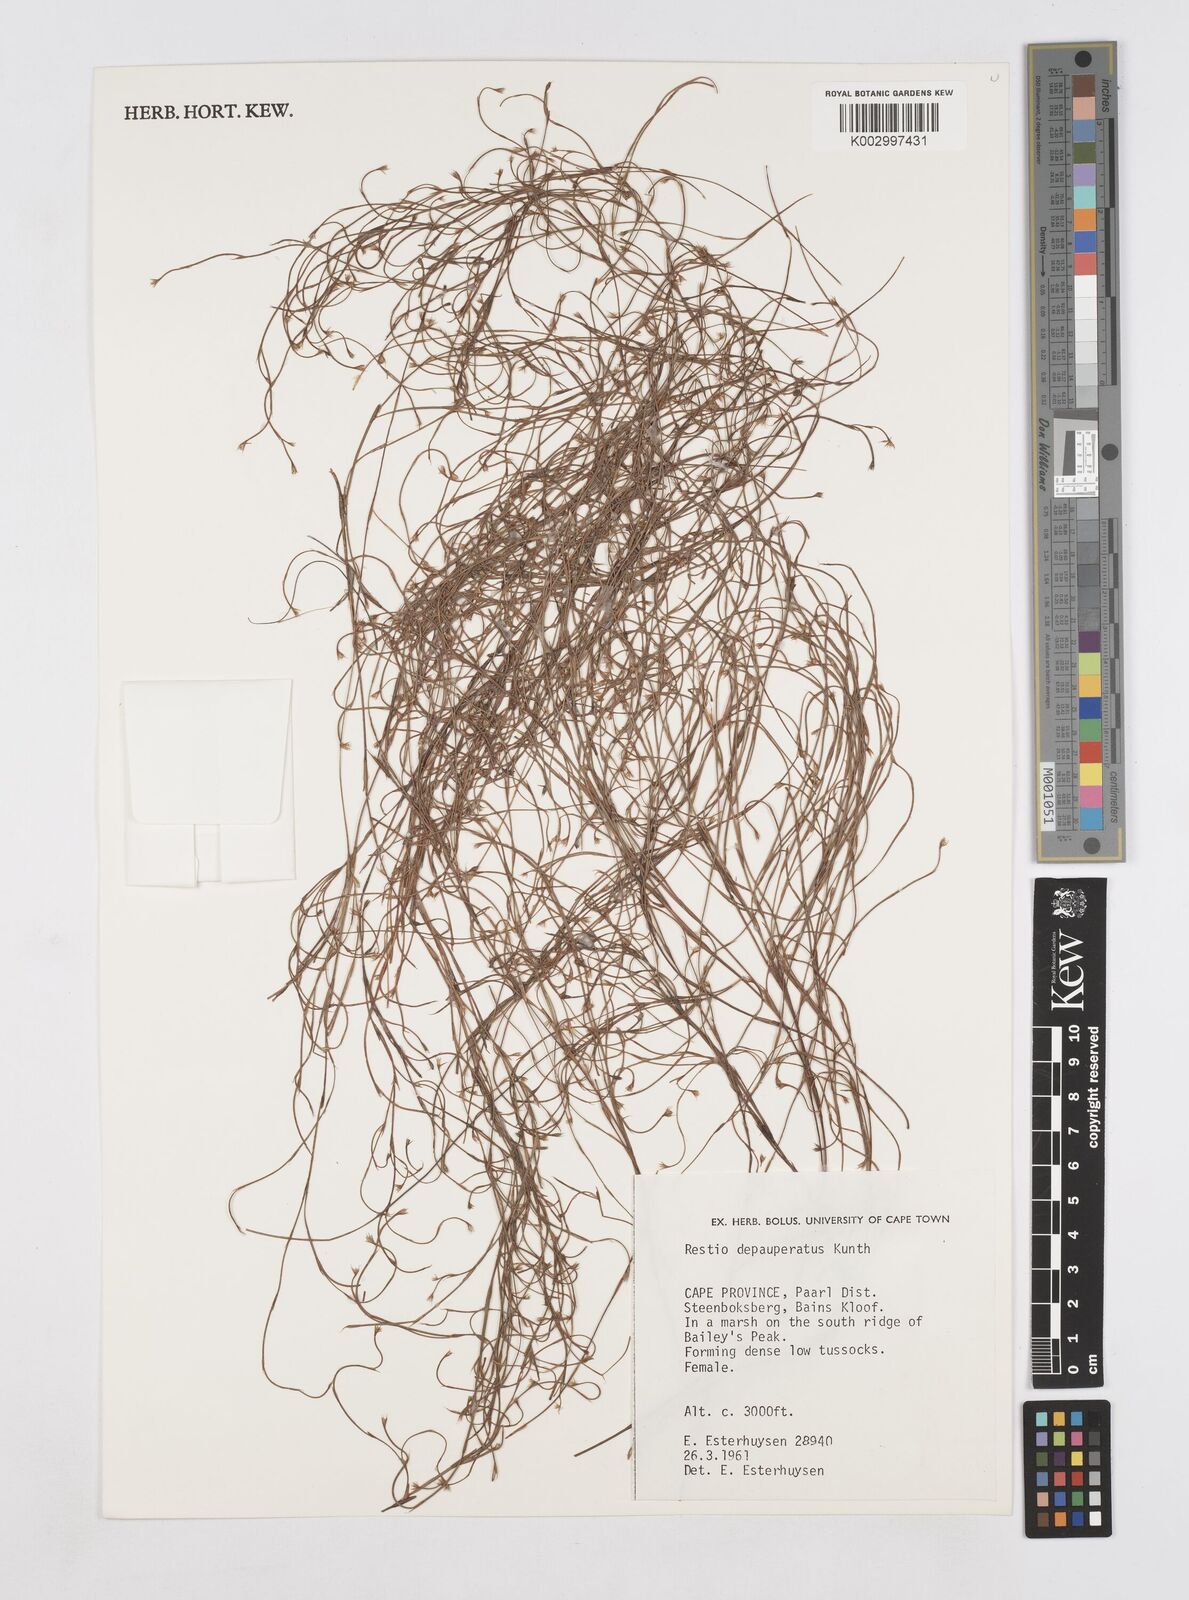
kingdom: Plantae
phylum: Tracheophyta
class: Liliopsida
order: Poales
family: Restionaceae
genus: Platycaulos
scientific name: Platycaulos depauperatus
